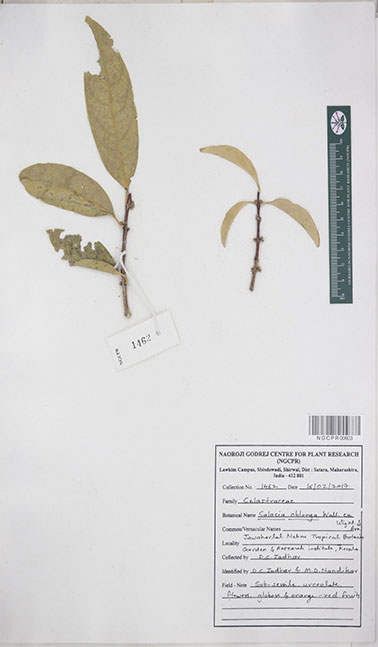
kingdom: Plantae
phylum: Tracheophyta
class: Magnoliopsida
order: Celastrales
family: Celastraceae
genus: Salacia
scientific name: Salacia oblonga
